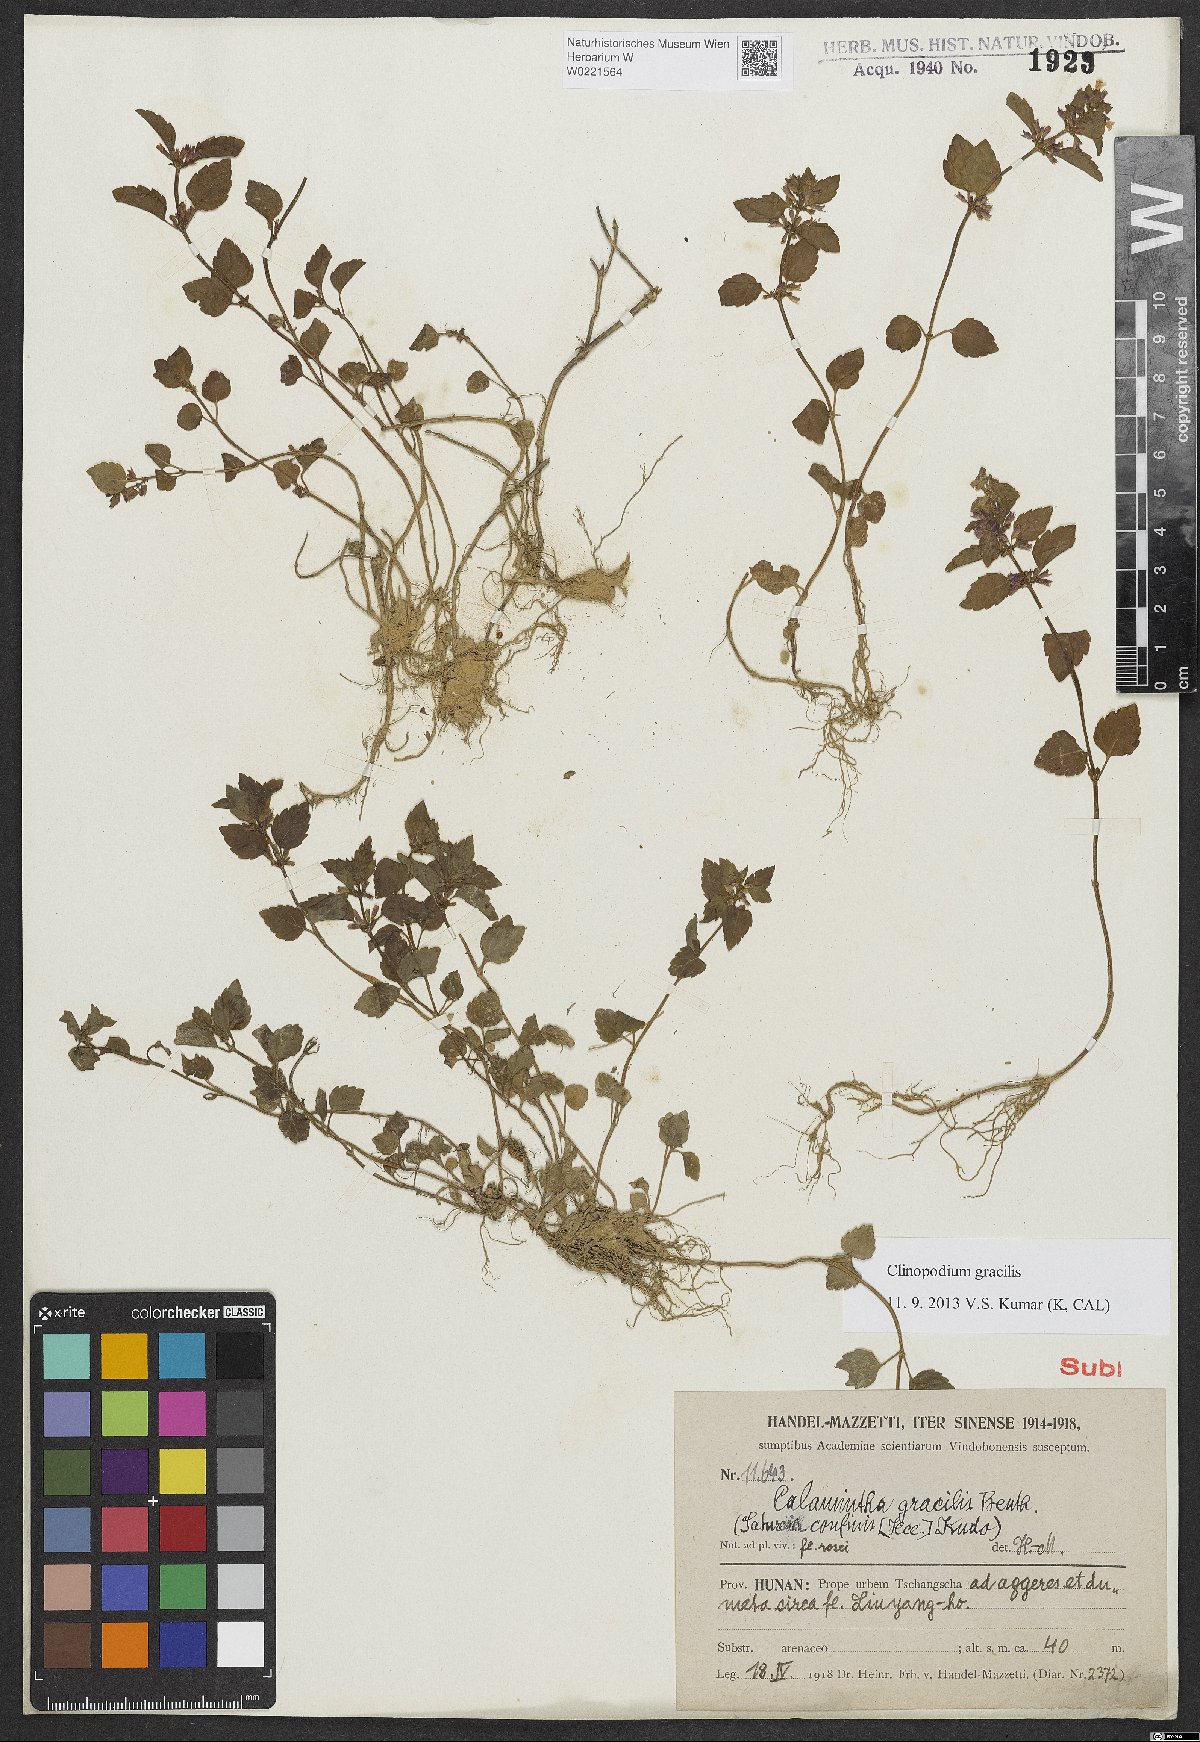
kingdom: Plantae
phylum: Tracheophyta
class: Magnoliopsida
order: Lamiales
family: Lamiaceae
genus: Clinopodium
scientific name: Clinopodium gracile
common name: Slender wild basil
